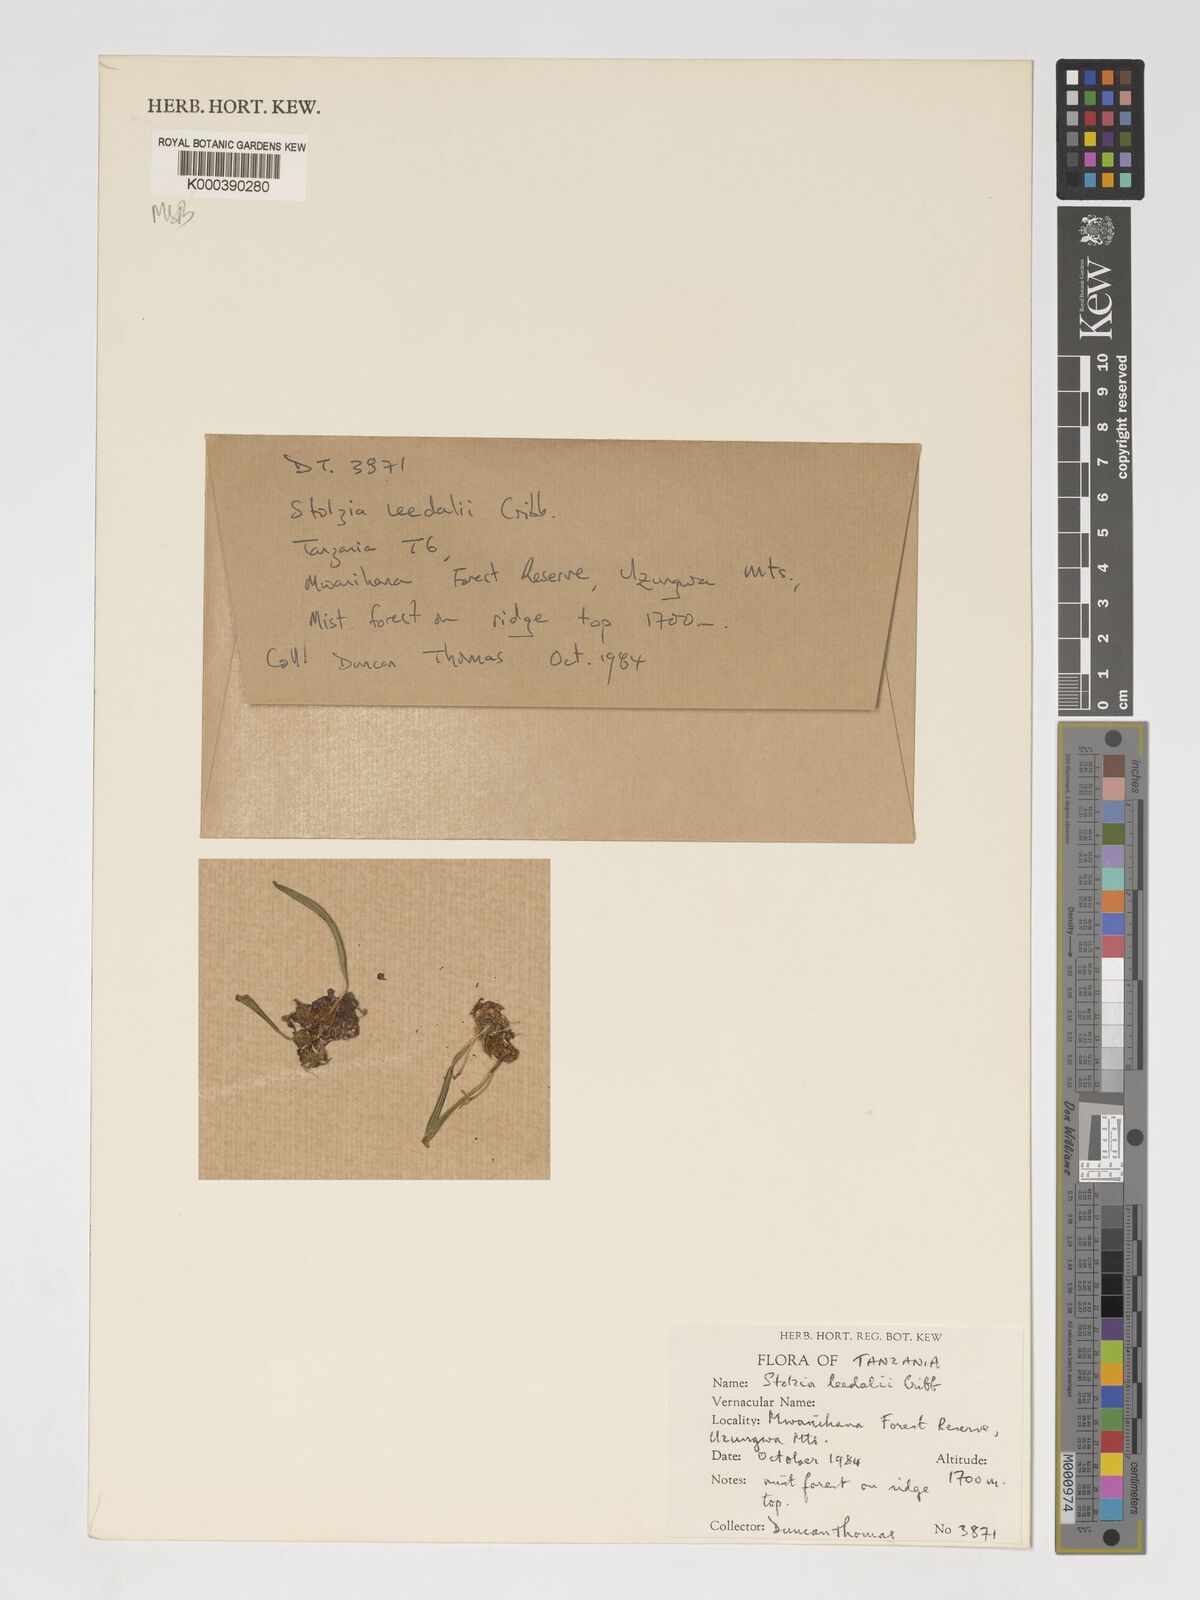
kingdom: Plantae
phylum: Tracheophyta
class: Liliopsida
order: Asparagales
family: Orchidaceae
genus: Porpax
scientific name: Porpax leedalii
